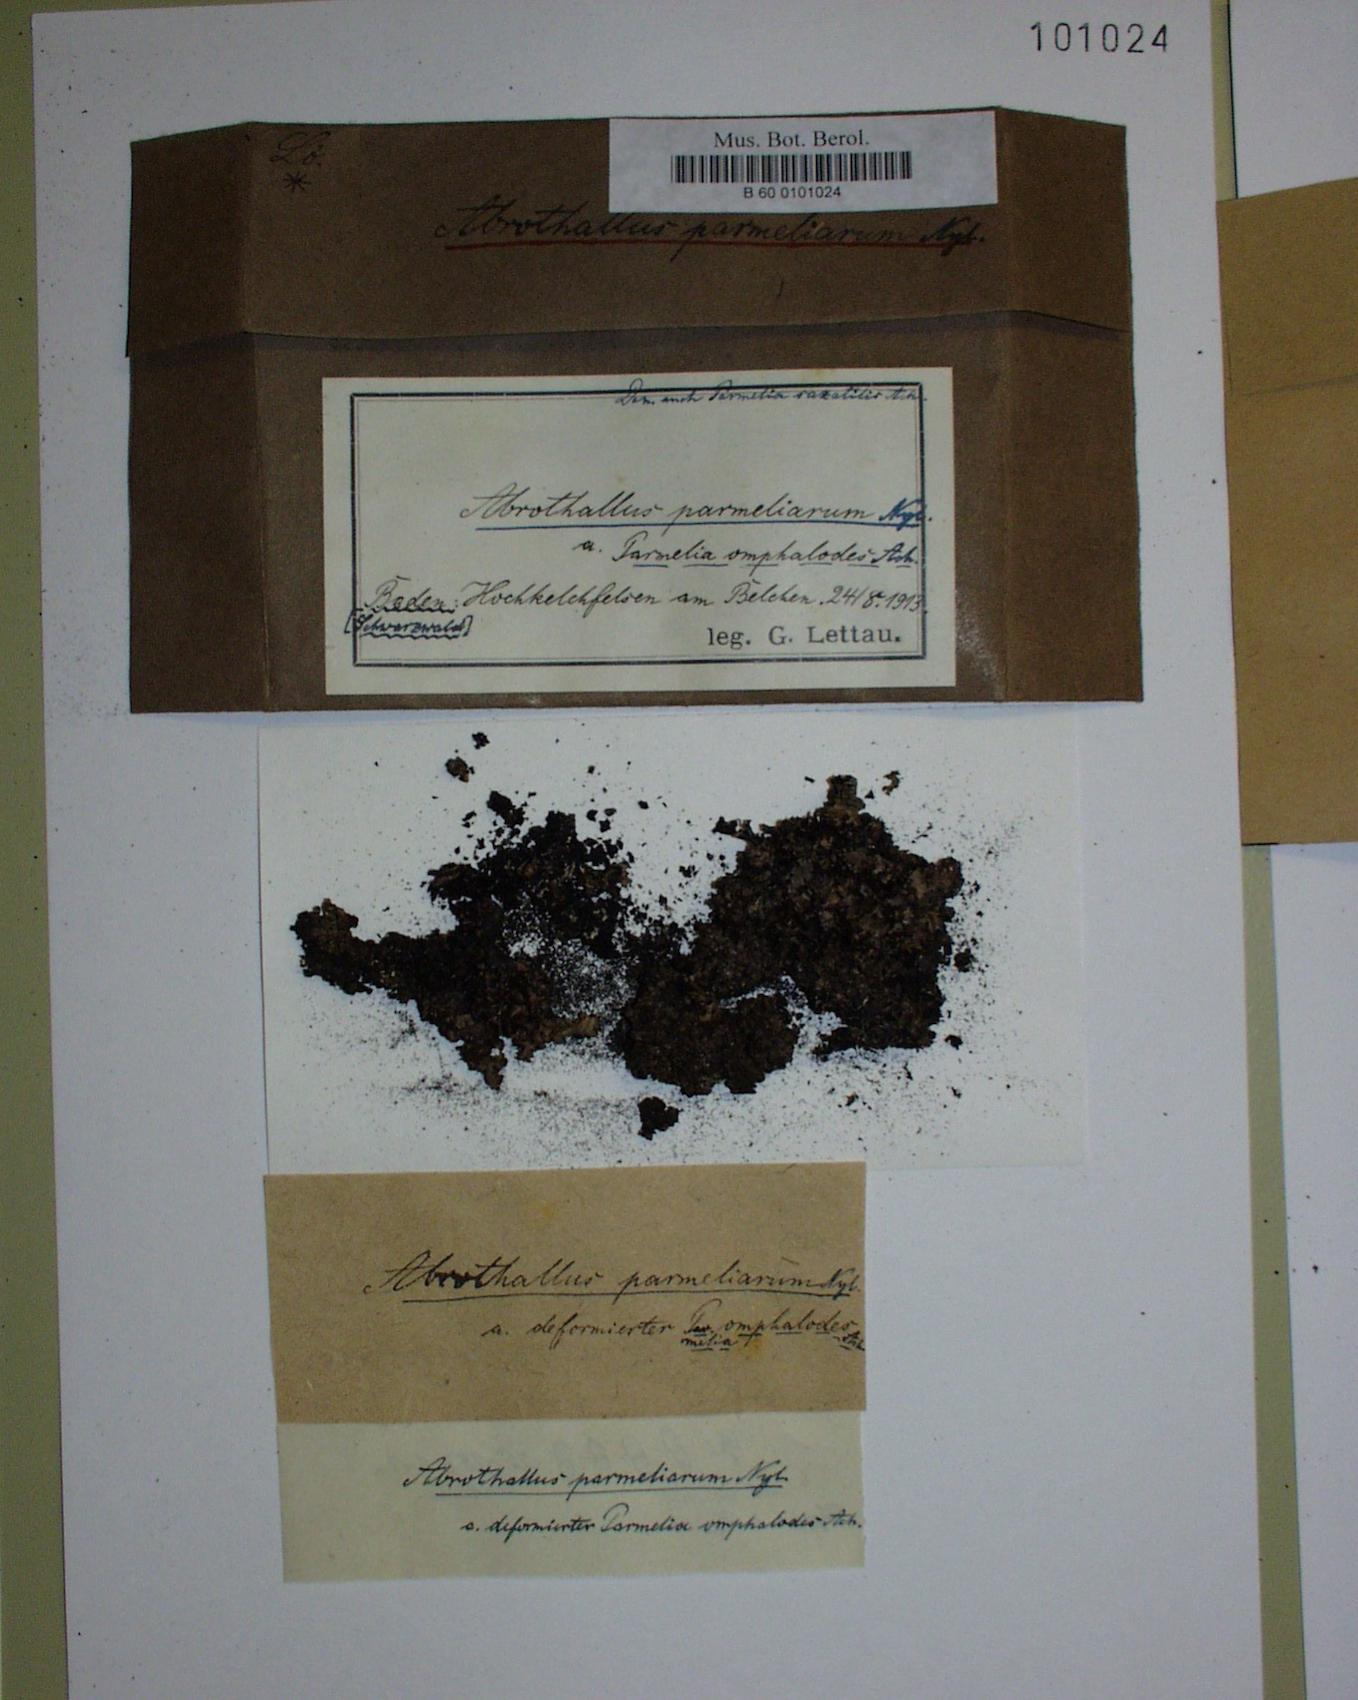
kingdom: Fungi
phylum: Ascomycota
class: Dothideomycetes
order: Abrothallales
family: Abrothallaceae
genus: Abrothallus
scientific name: Abrothallus parmeliarum
